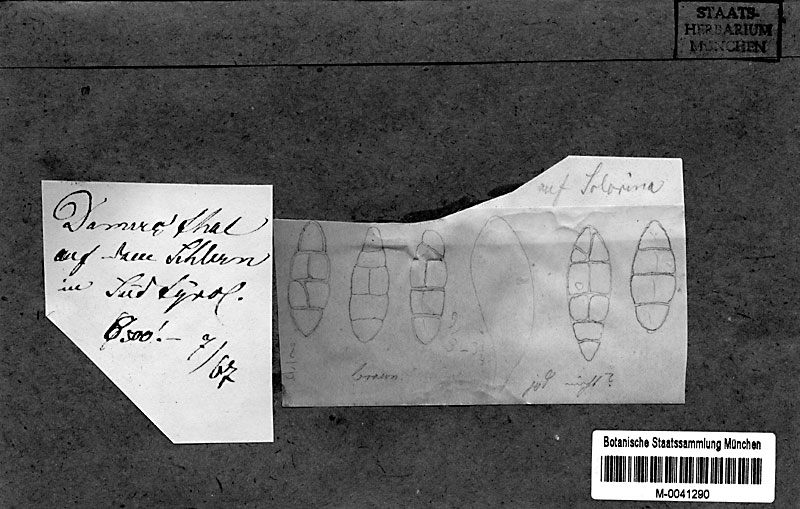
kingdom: Fungi
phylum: Ascomycota
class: Dothideomycetes
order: Pleosporales
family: Dacampiaceae
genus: Dacampia
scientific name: Dacampia engeliana
